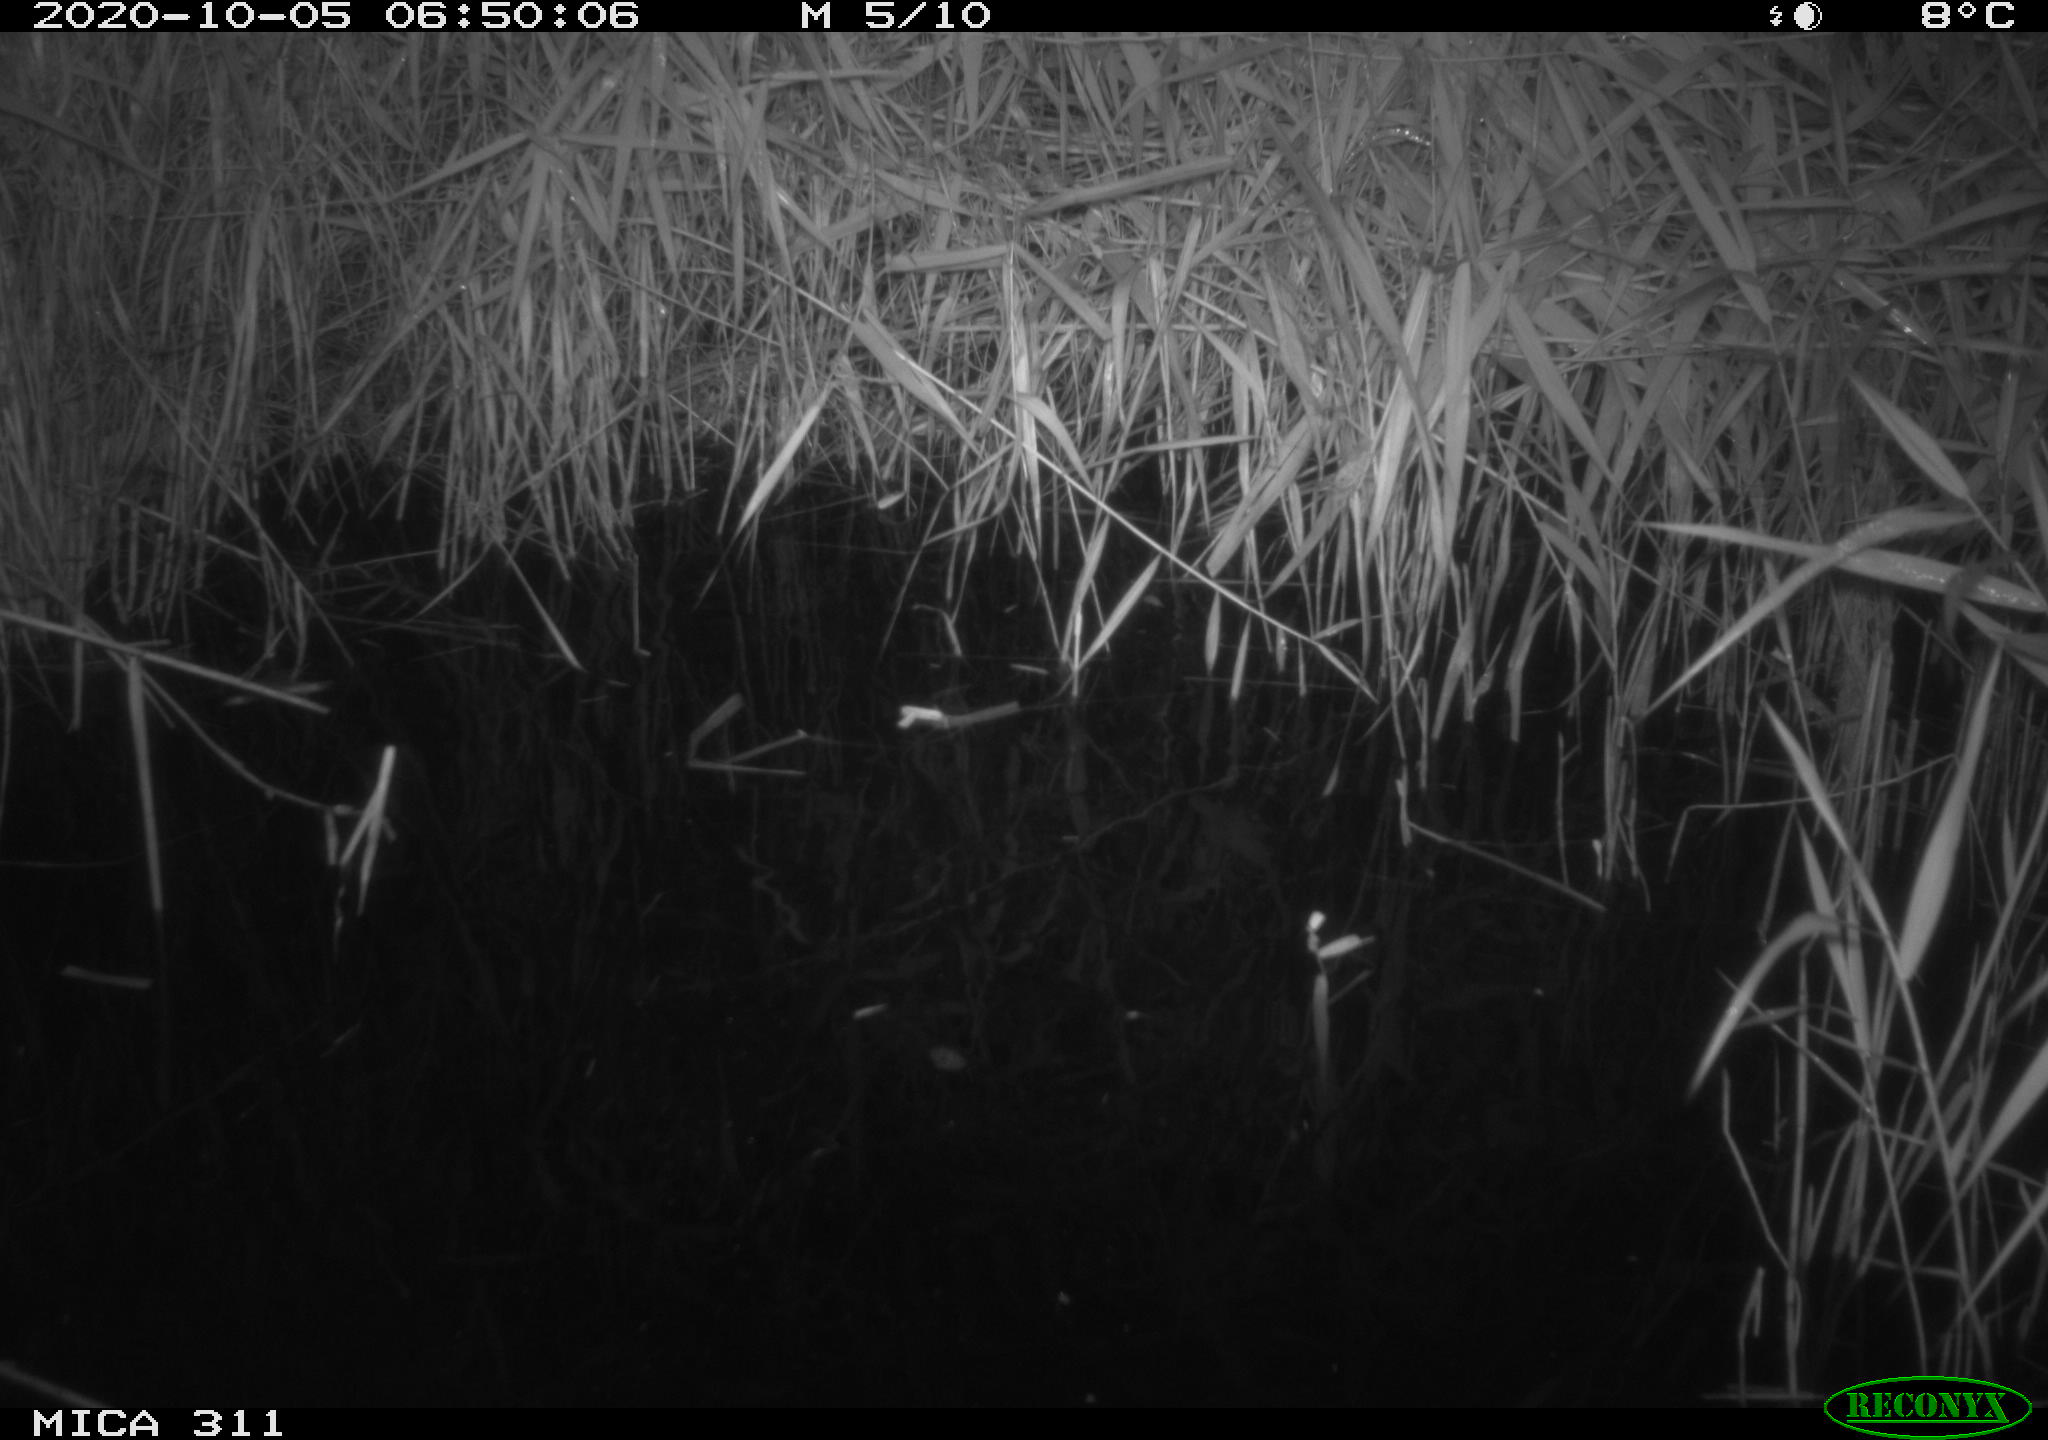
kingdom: Animalia
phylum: Chordata
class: Mammalia
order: Rodentia
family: Muridae
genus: Rattus
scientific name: Rattus norvegicus
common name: Brown rat
